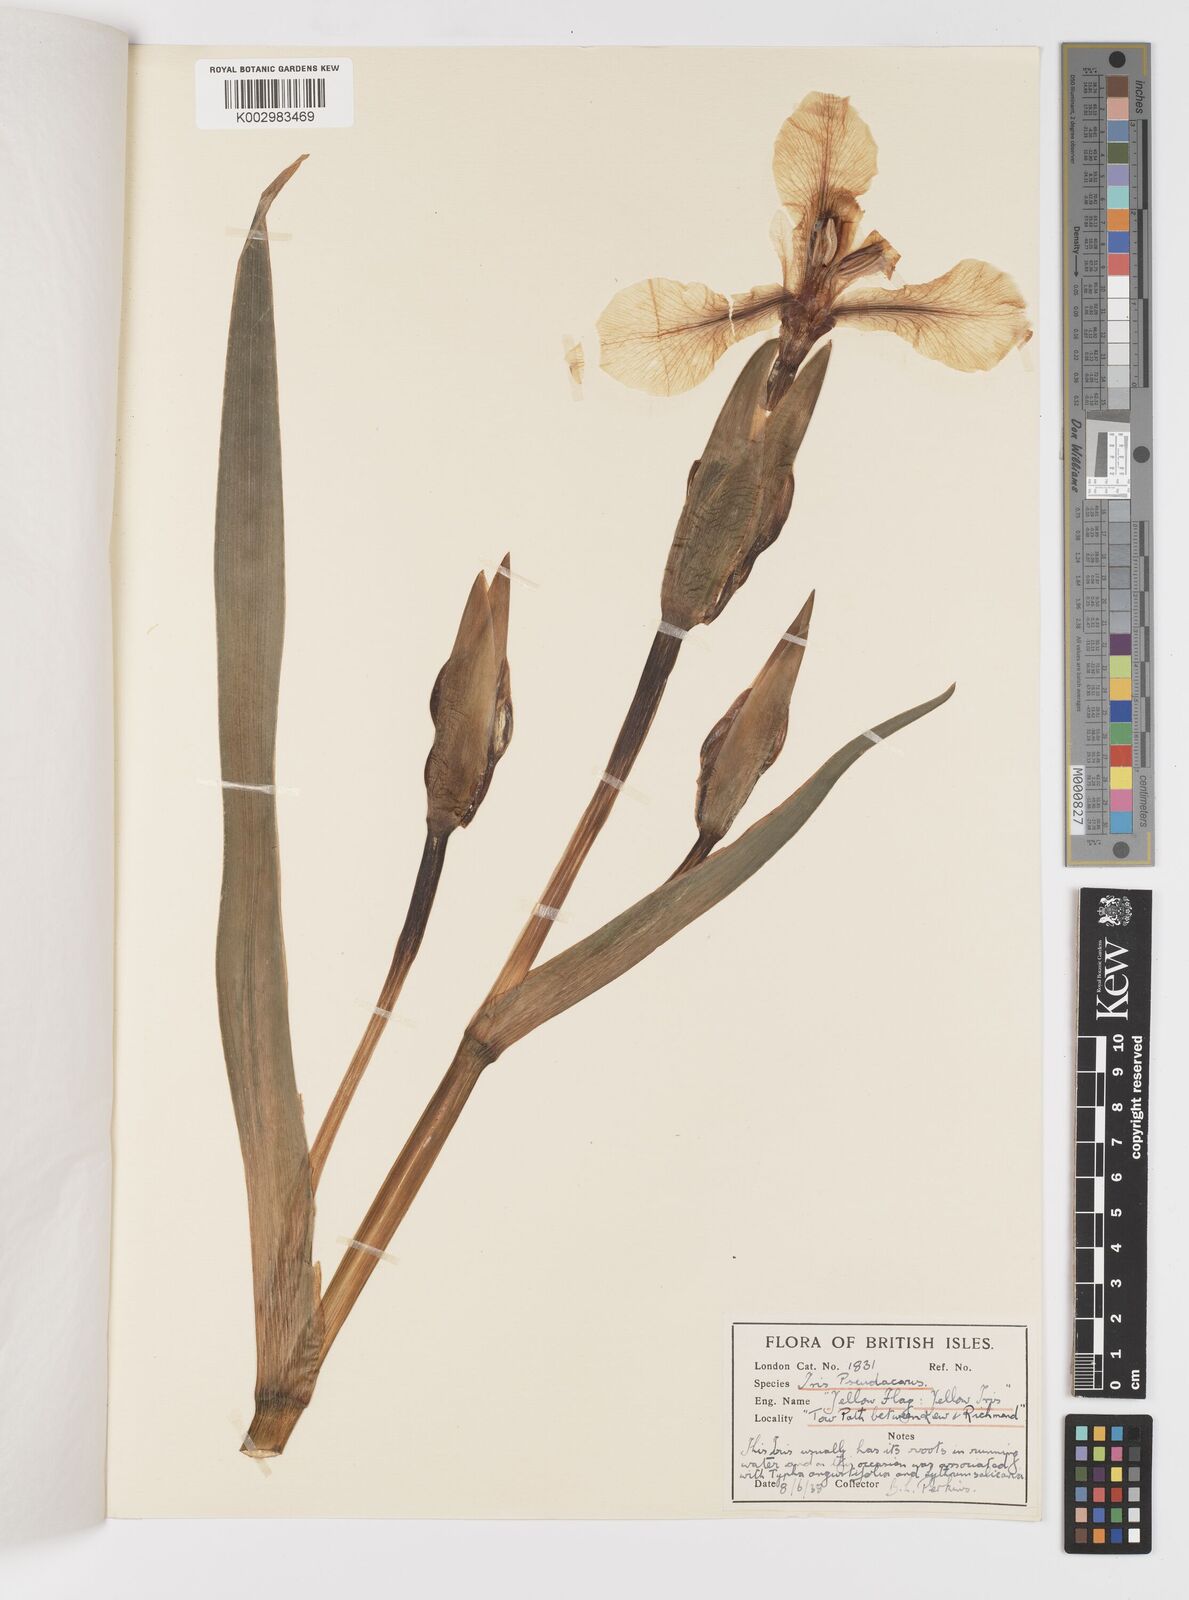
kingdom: Plantae
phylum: Tracheophyta
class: Liliopsida
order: Asparagales
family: Iridaceae
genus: Iris
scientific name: Iris pseudacorus
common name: Yellow flag
